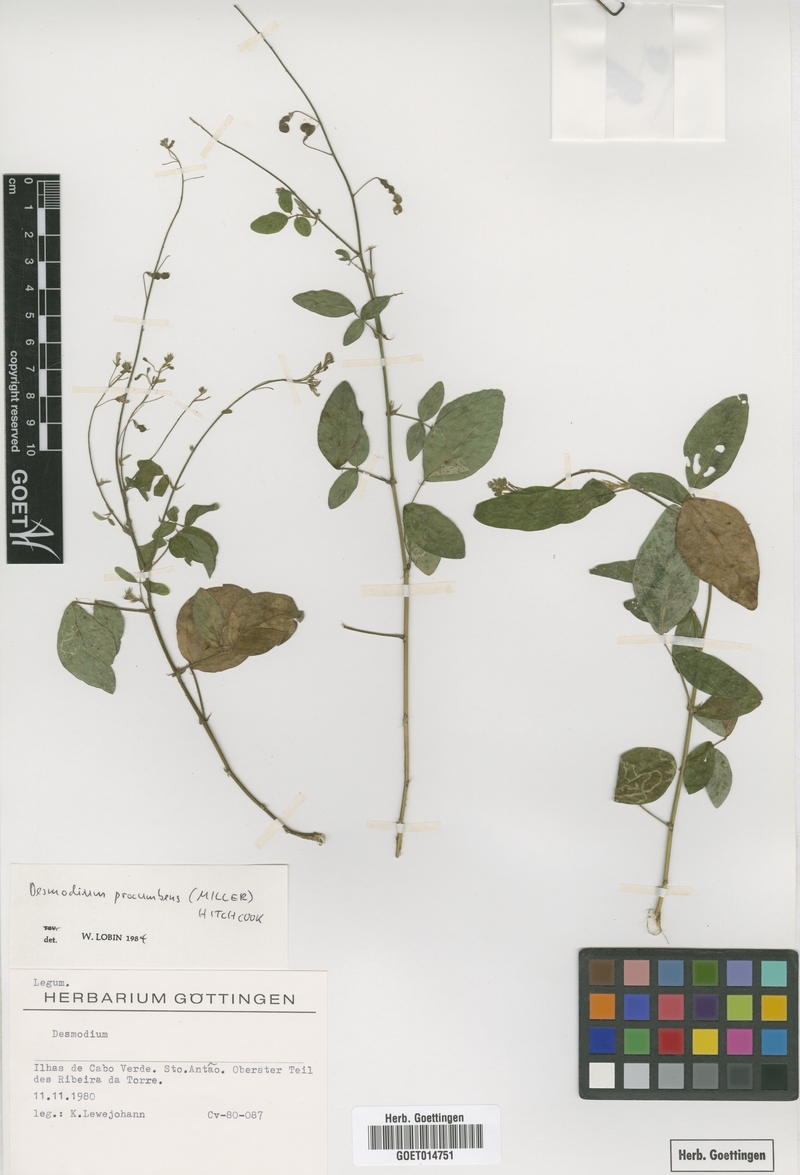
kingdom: Plantae
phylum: Tracheophyta
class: Magnoliopsida
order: Fabales
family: Fabaceae
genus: Desmodium
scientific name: Desmodium procumbens
